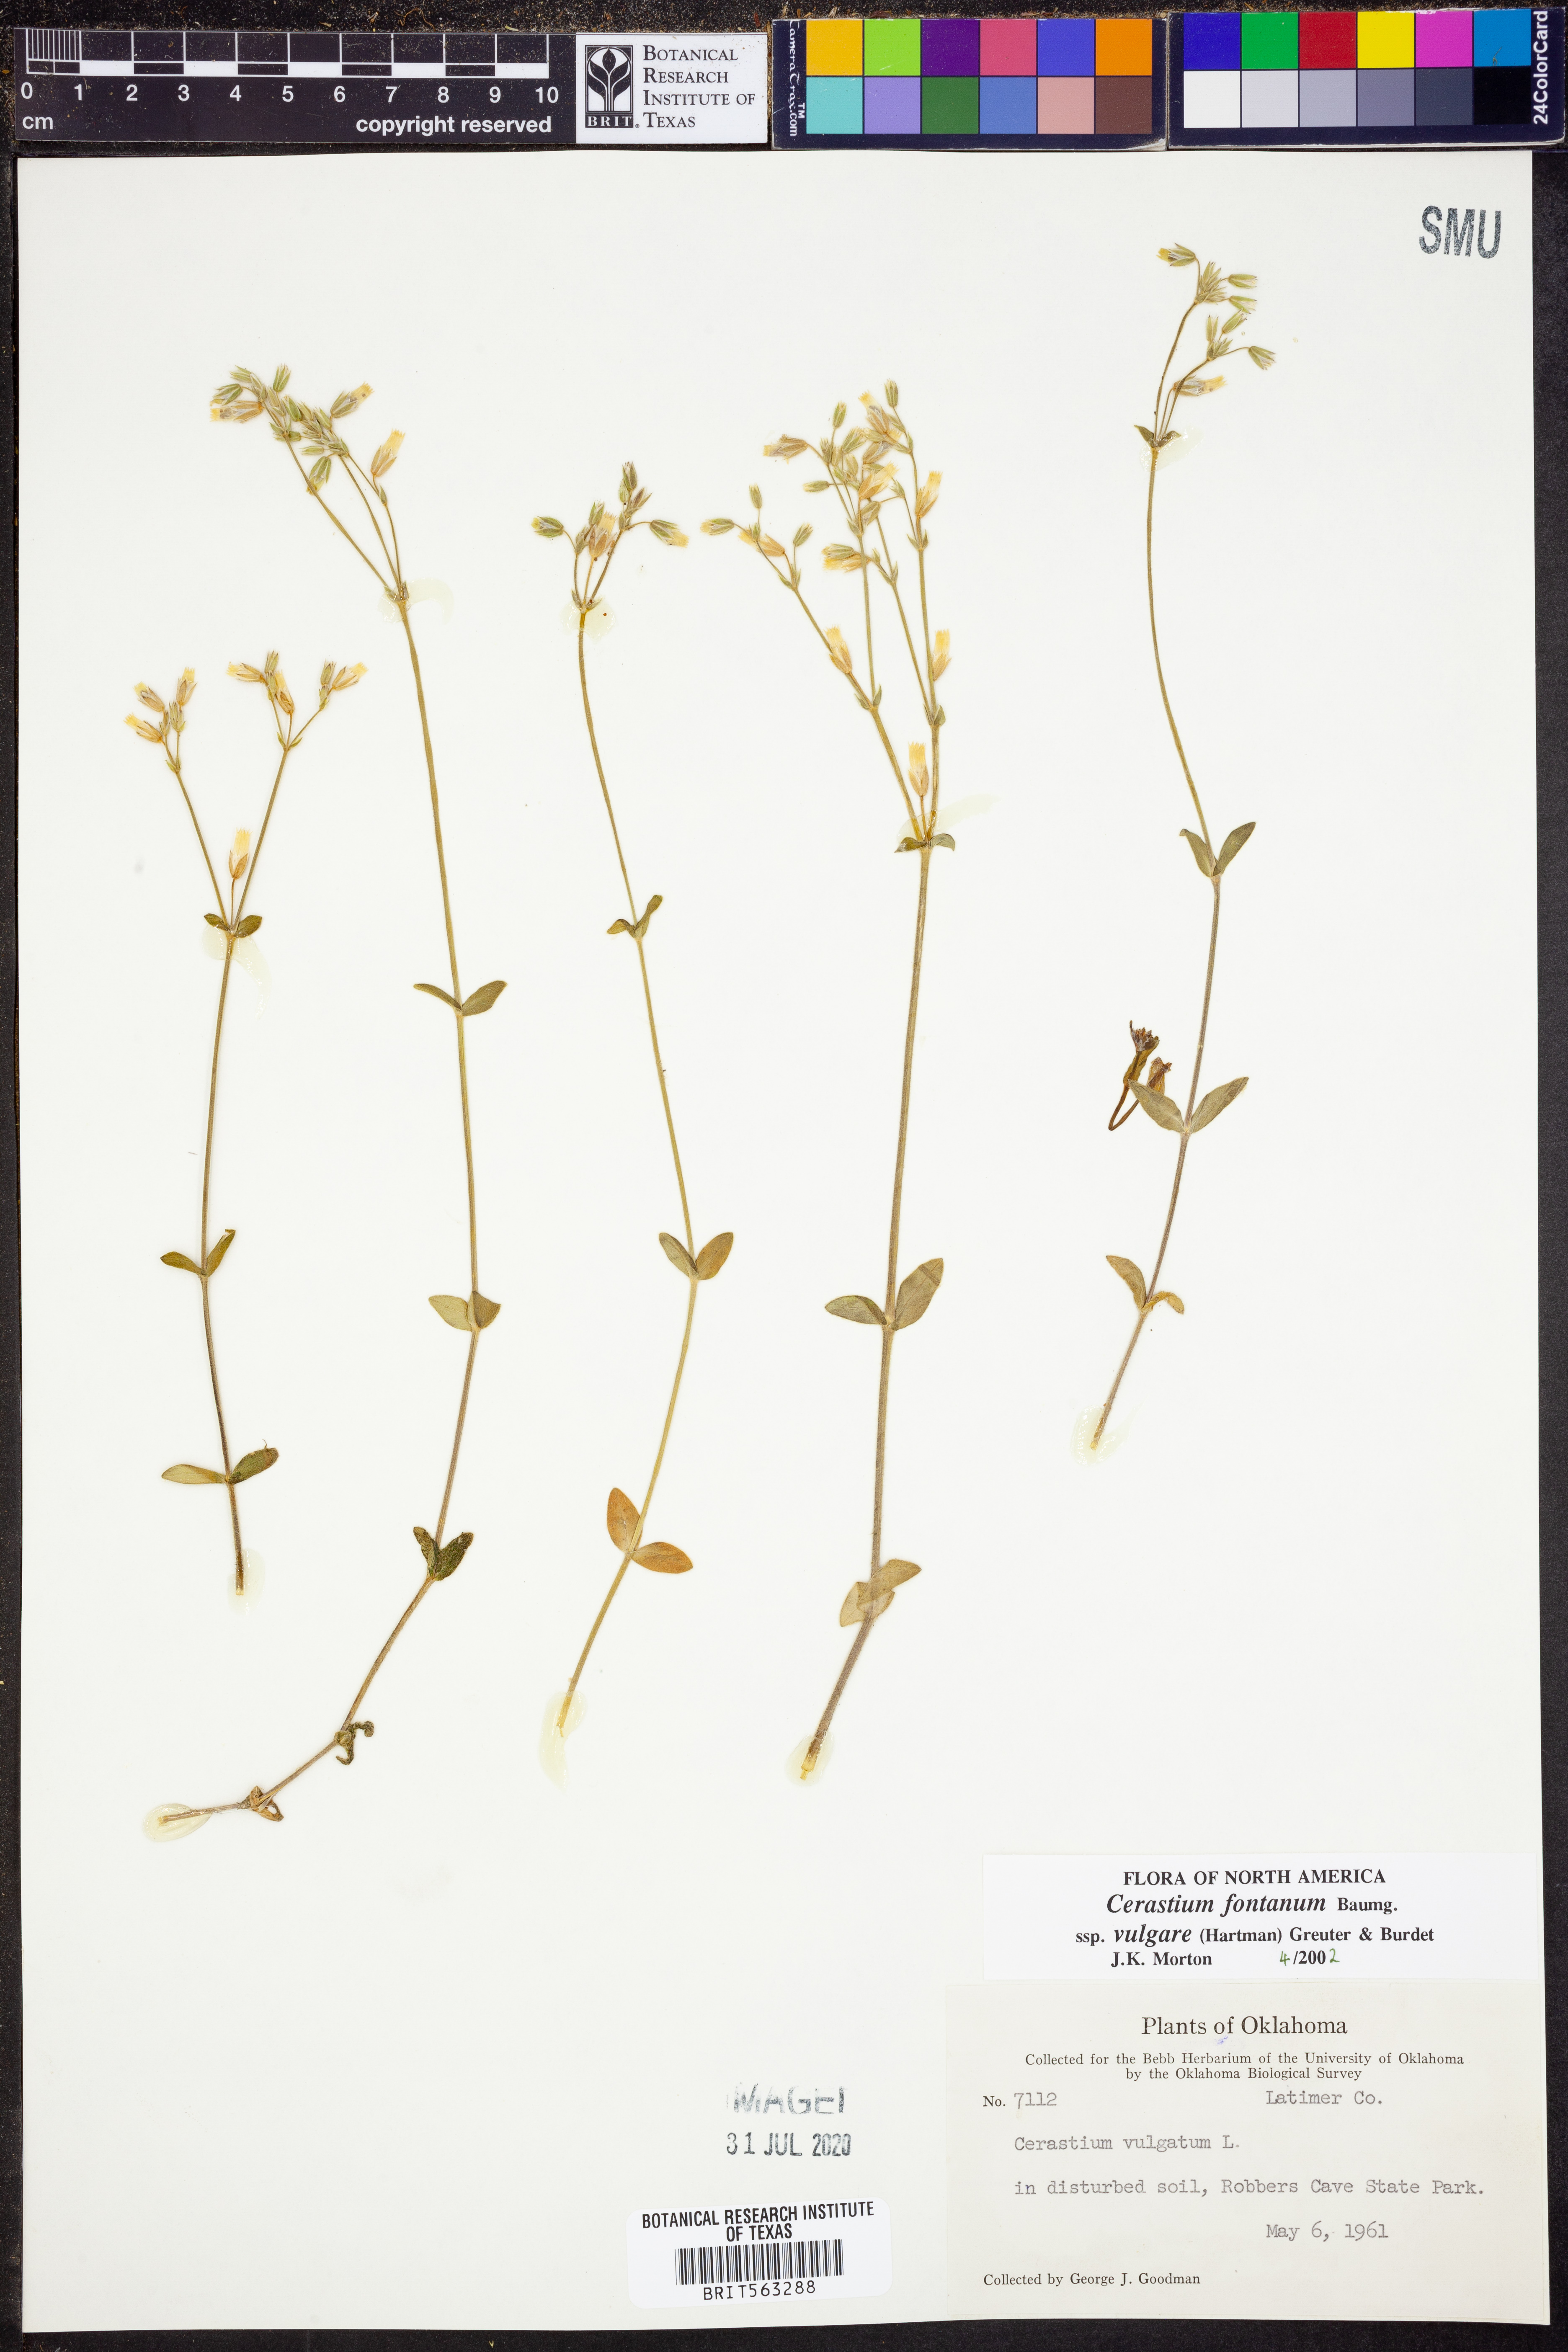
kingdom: Plantae
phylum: Tracheophyta
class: Magnoliopsida
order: Caryophyllales
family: Caryophyllaceae
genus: Cerastium
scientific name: Cerastium holosteoides
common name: Big chickweed
